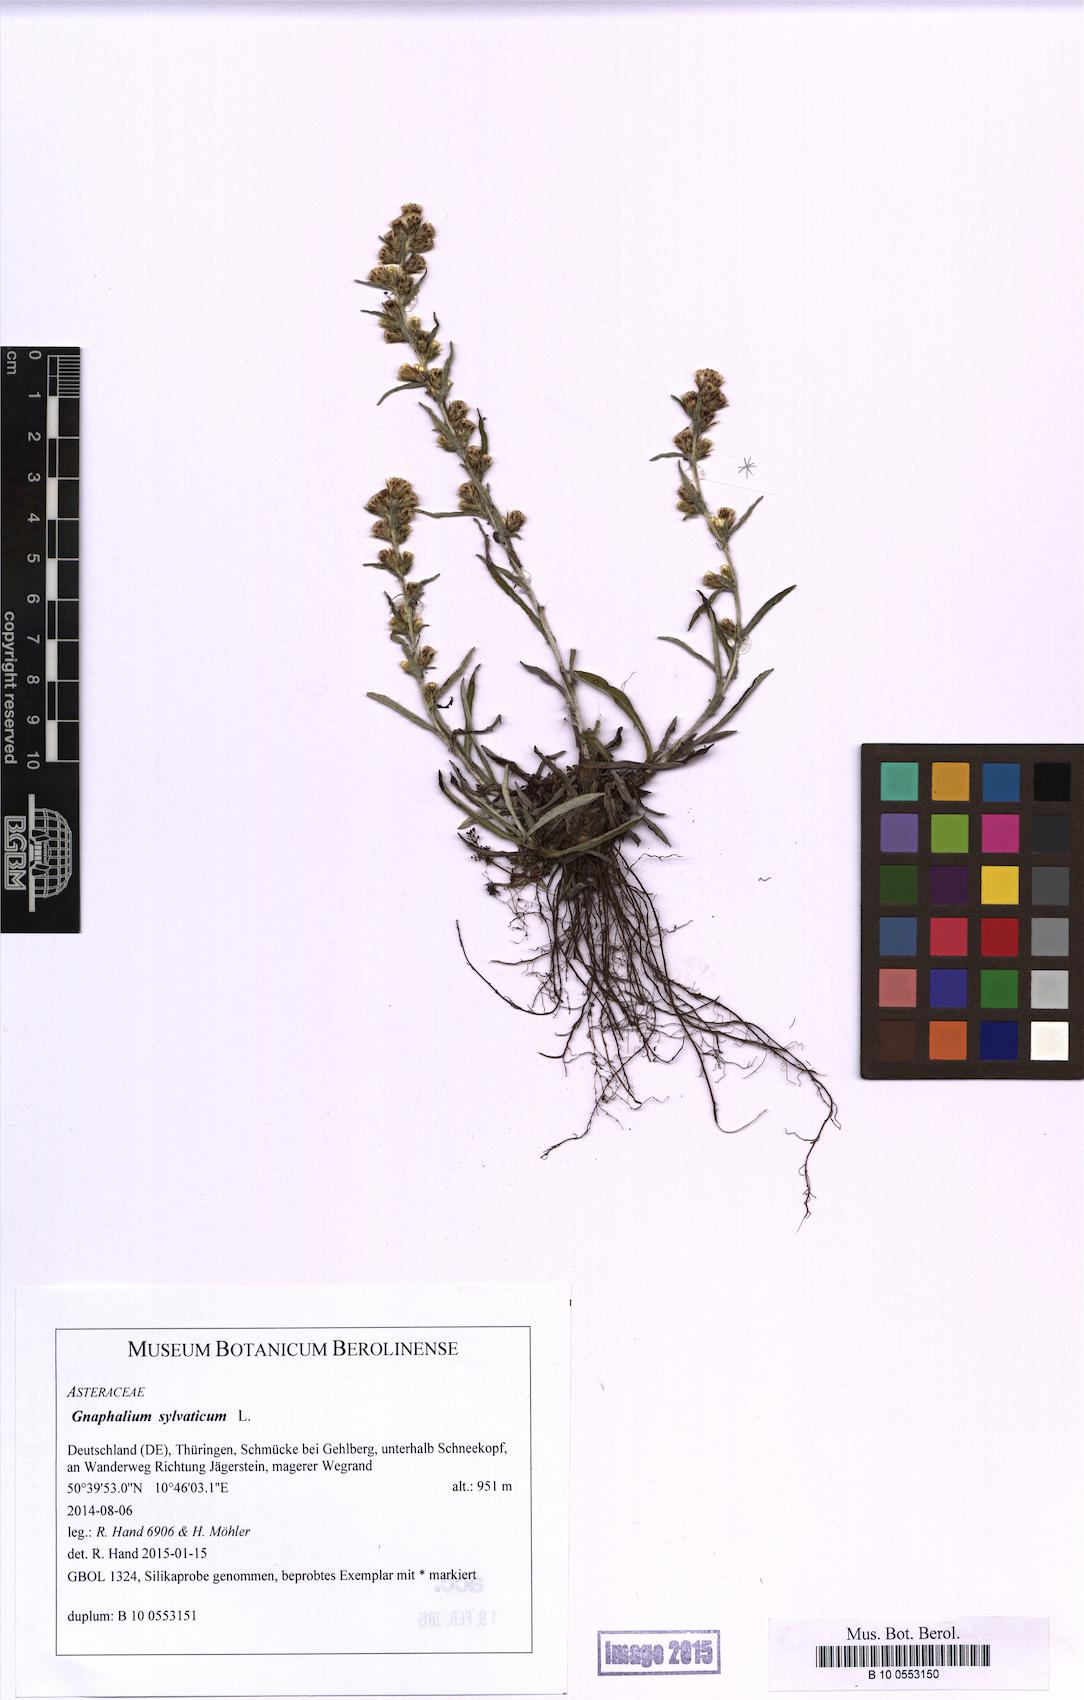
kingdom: Plantae
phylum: Tracheophyta
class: Magnoliopsida
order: Asterales
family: Asteraceae
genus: Omalotheca
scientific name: Omalotheca sylvatica
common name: Heath cudweed
